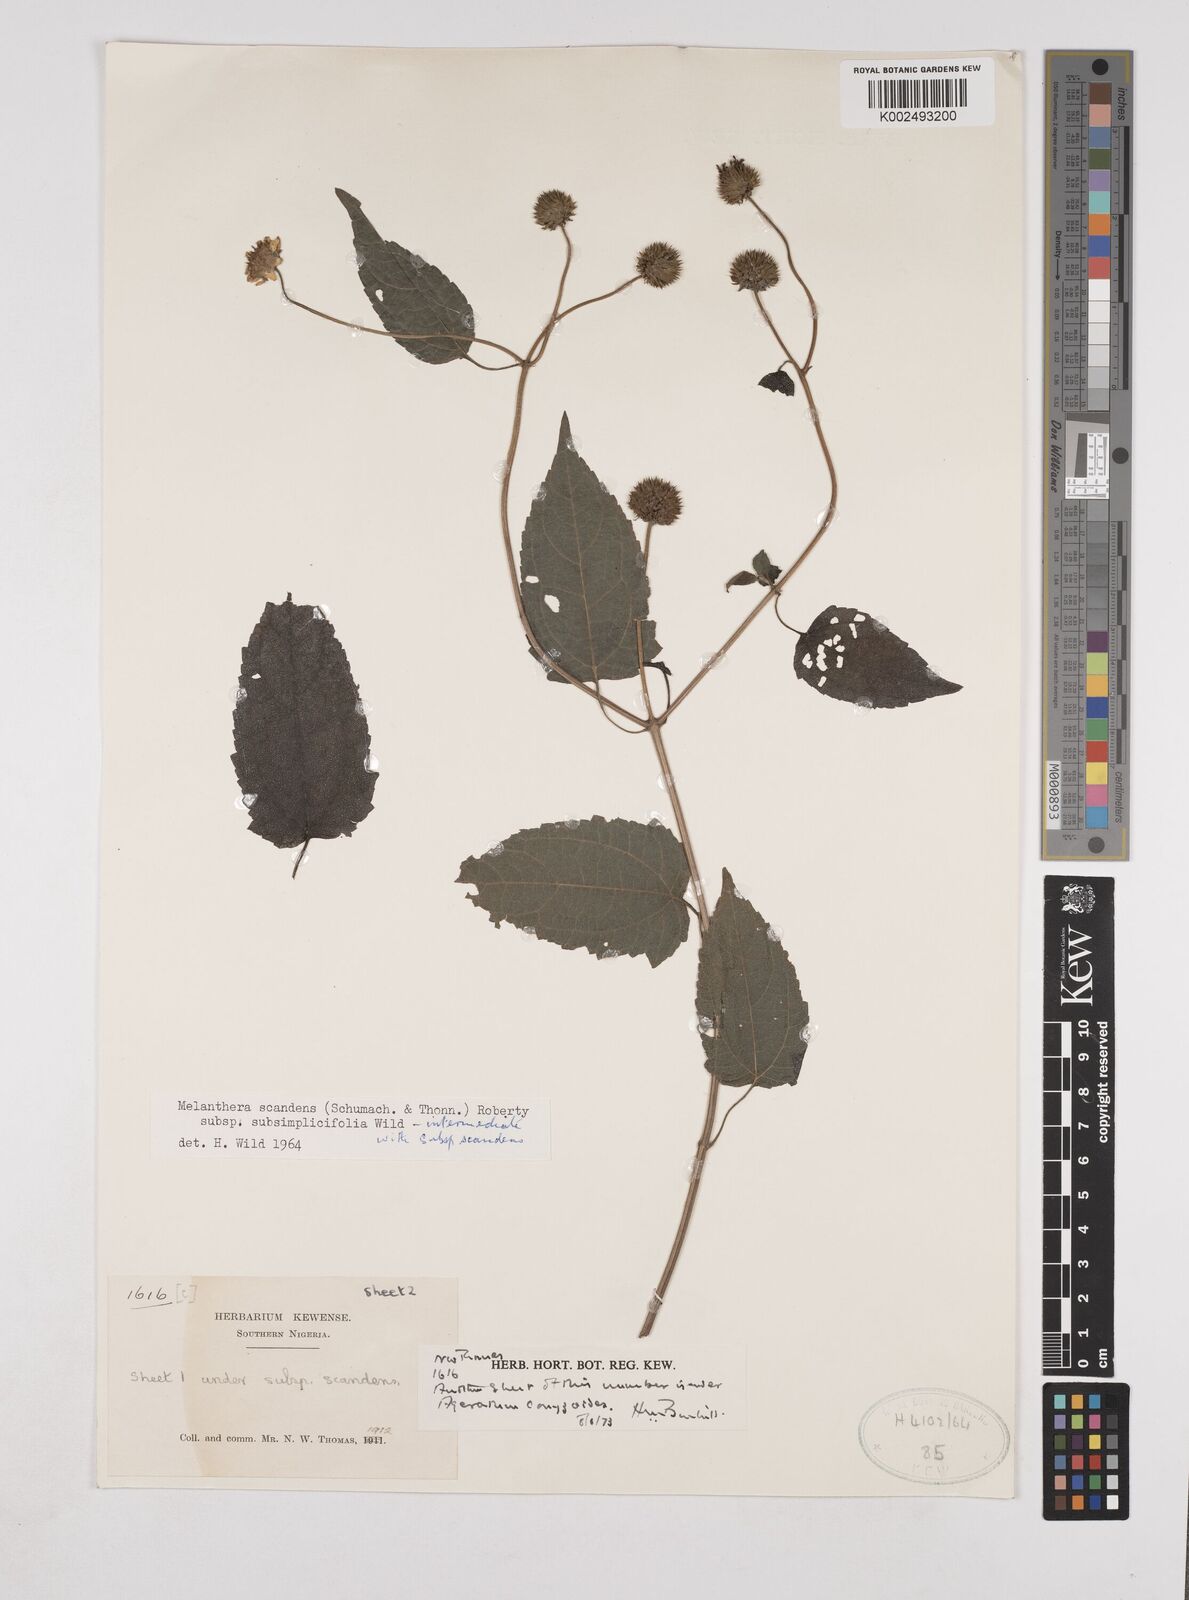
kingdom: Plantae
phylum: Tracheophyta
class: Magnoliopsida
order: Asterales
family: Asteraceae
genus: Lipotriche
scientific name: Lipotriche scandens
